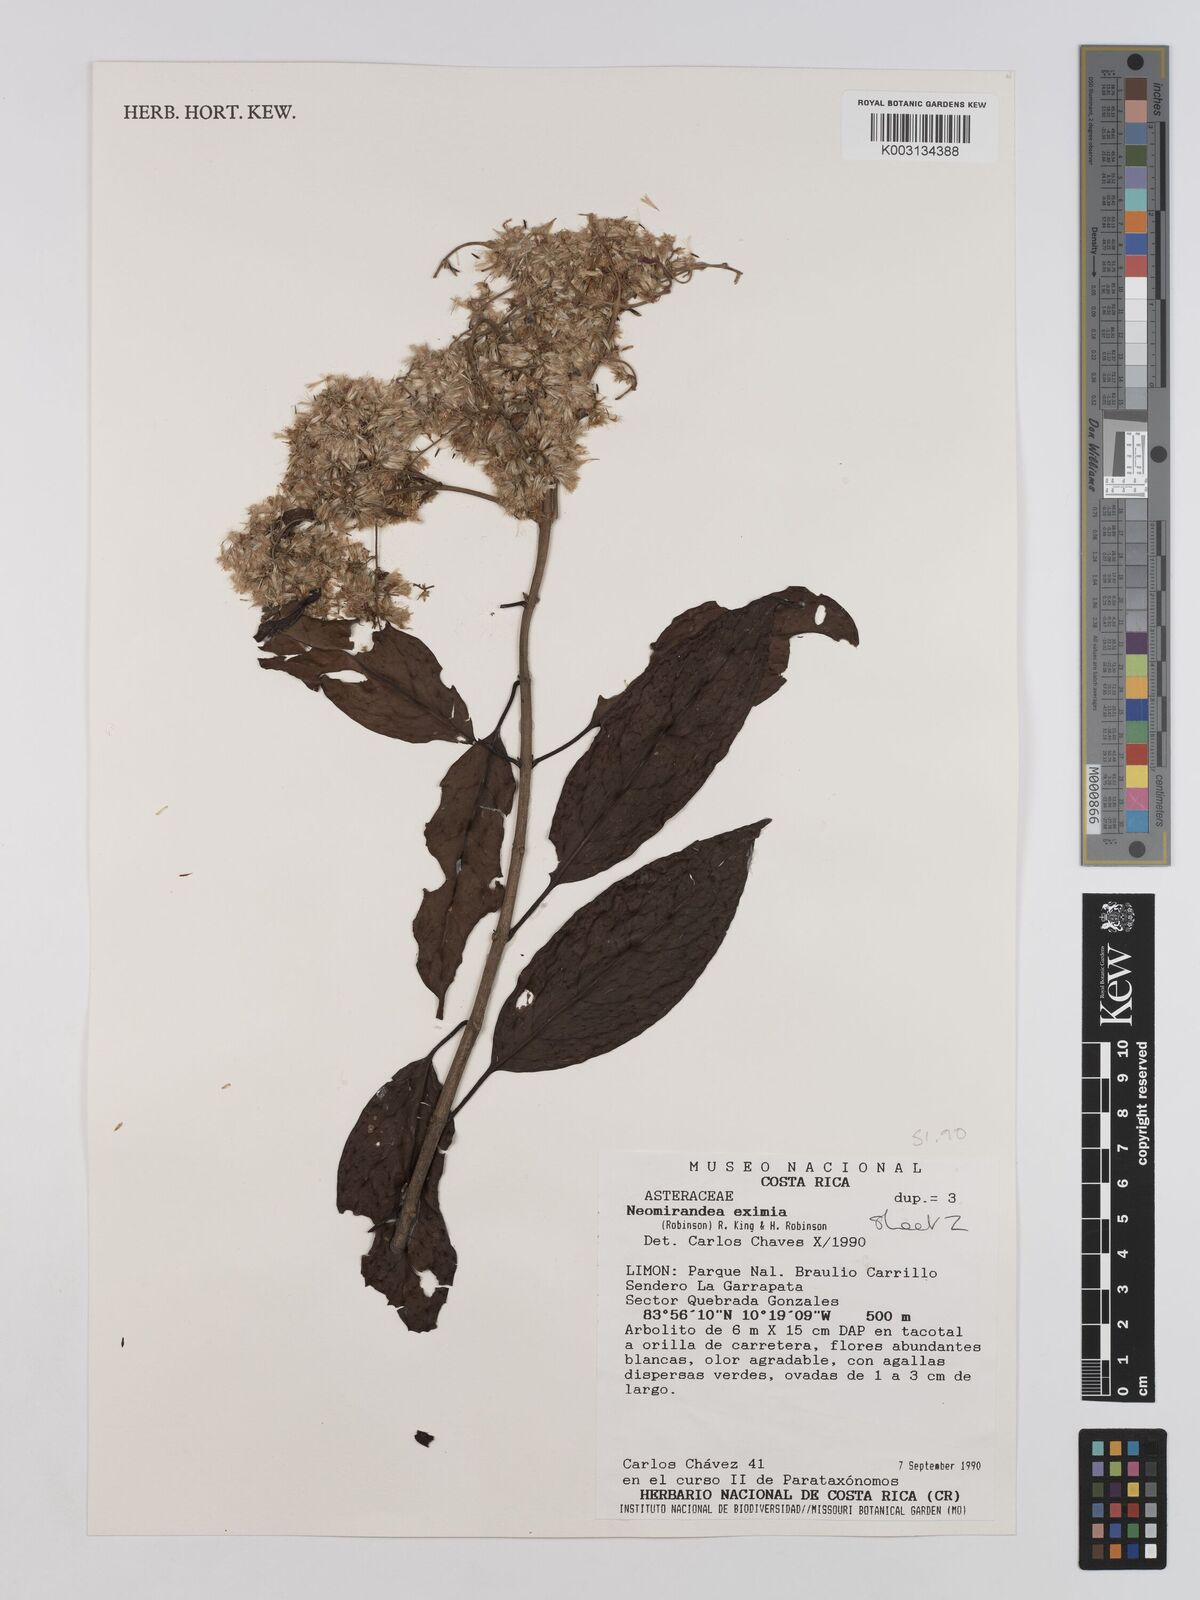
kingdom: Plantae
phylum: Tracheophyta
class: Magnoliopsida
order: Asterales
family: Asteraceae
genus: Neomirandea
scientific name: Neomirandea eximia
